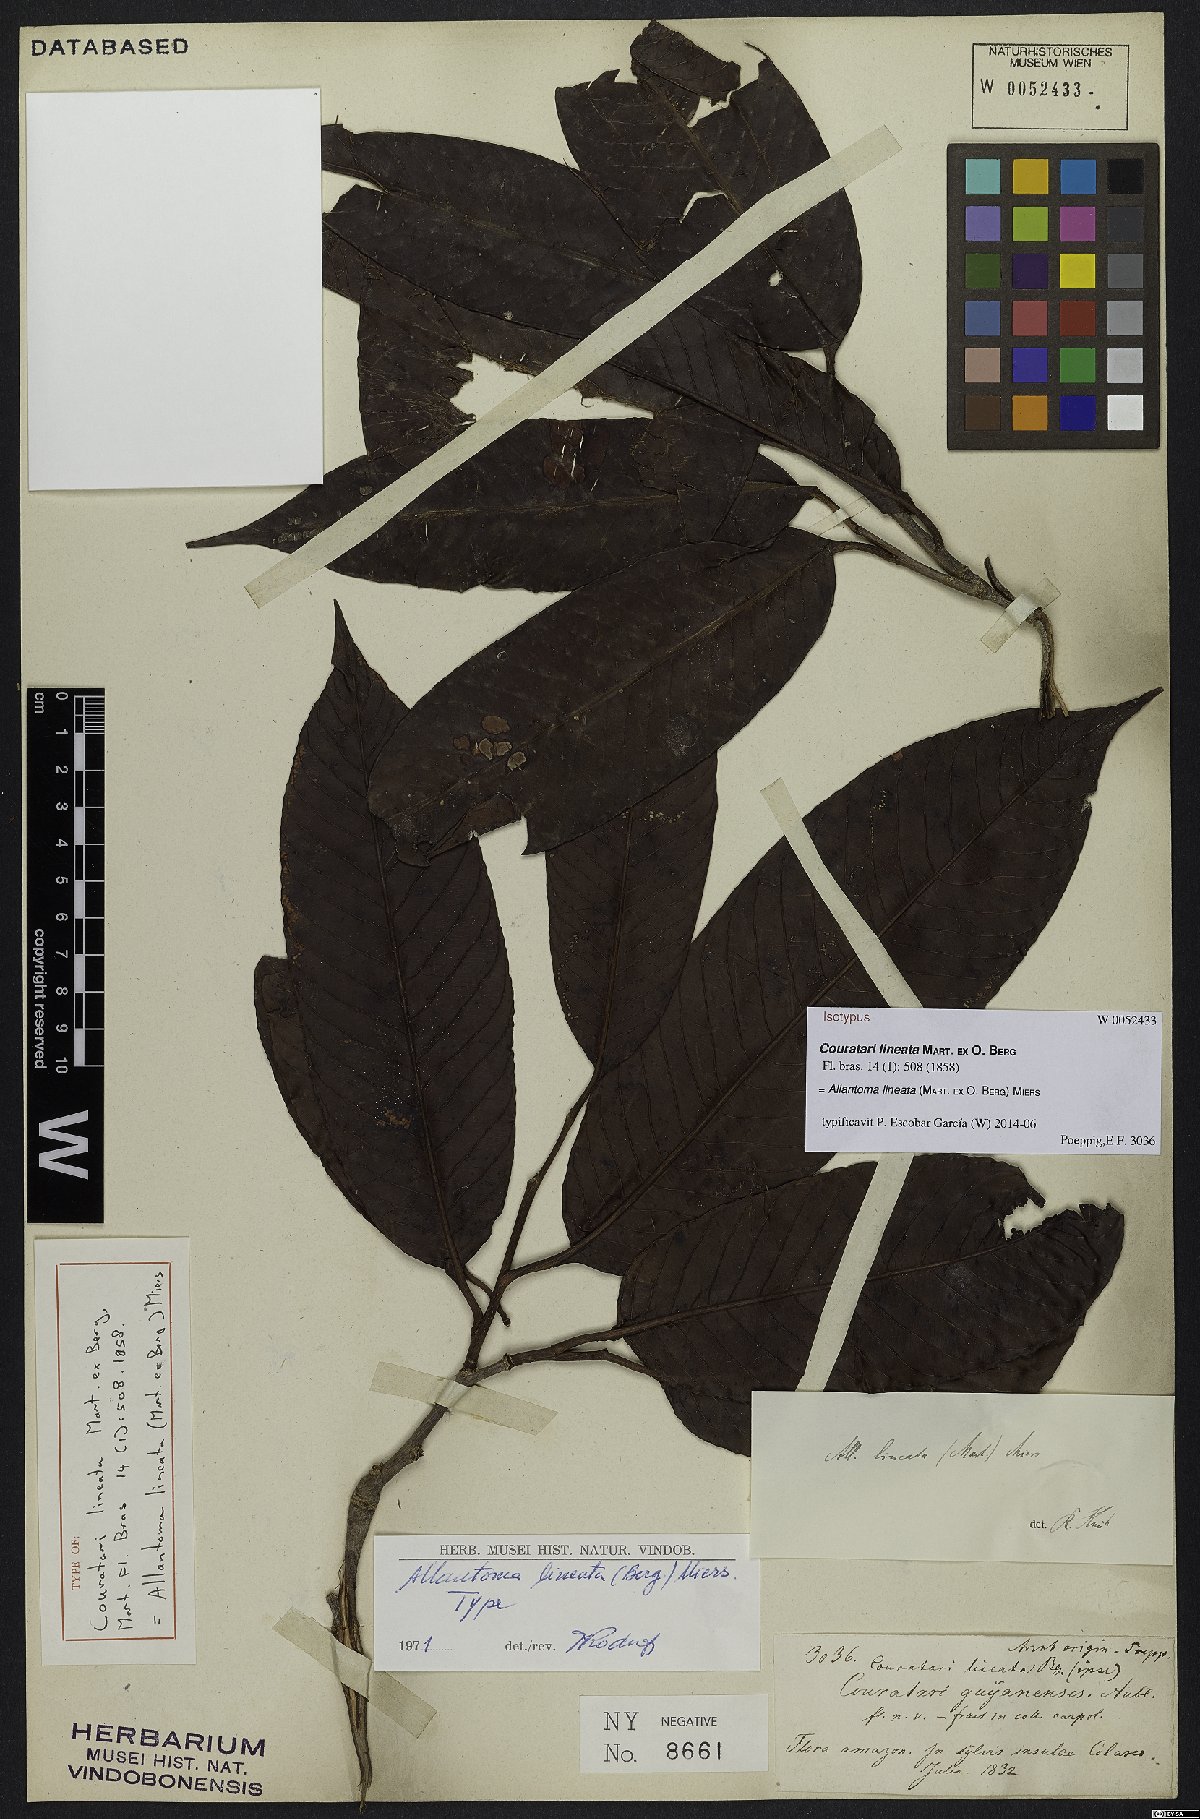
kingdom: Plantae
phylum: Tracheophyta
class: Magnoliopsida
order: Ericales
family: Lecythidaceae
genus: Allantoma
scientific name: Allantoma lineata
